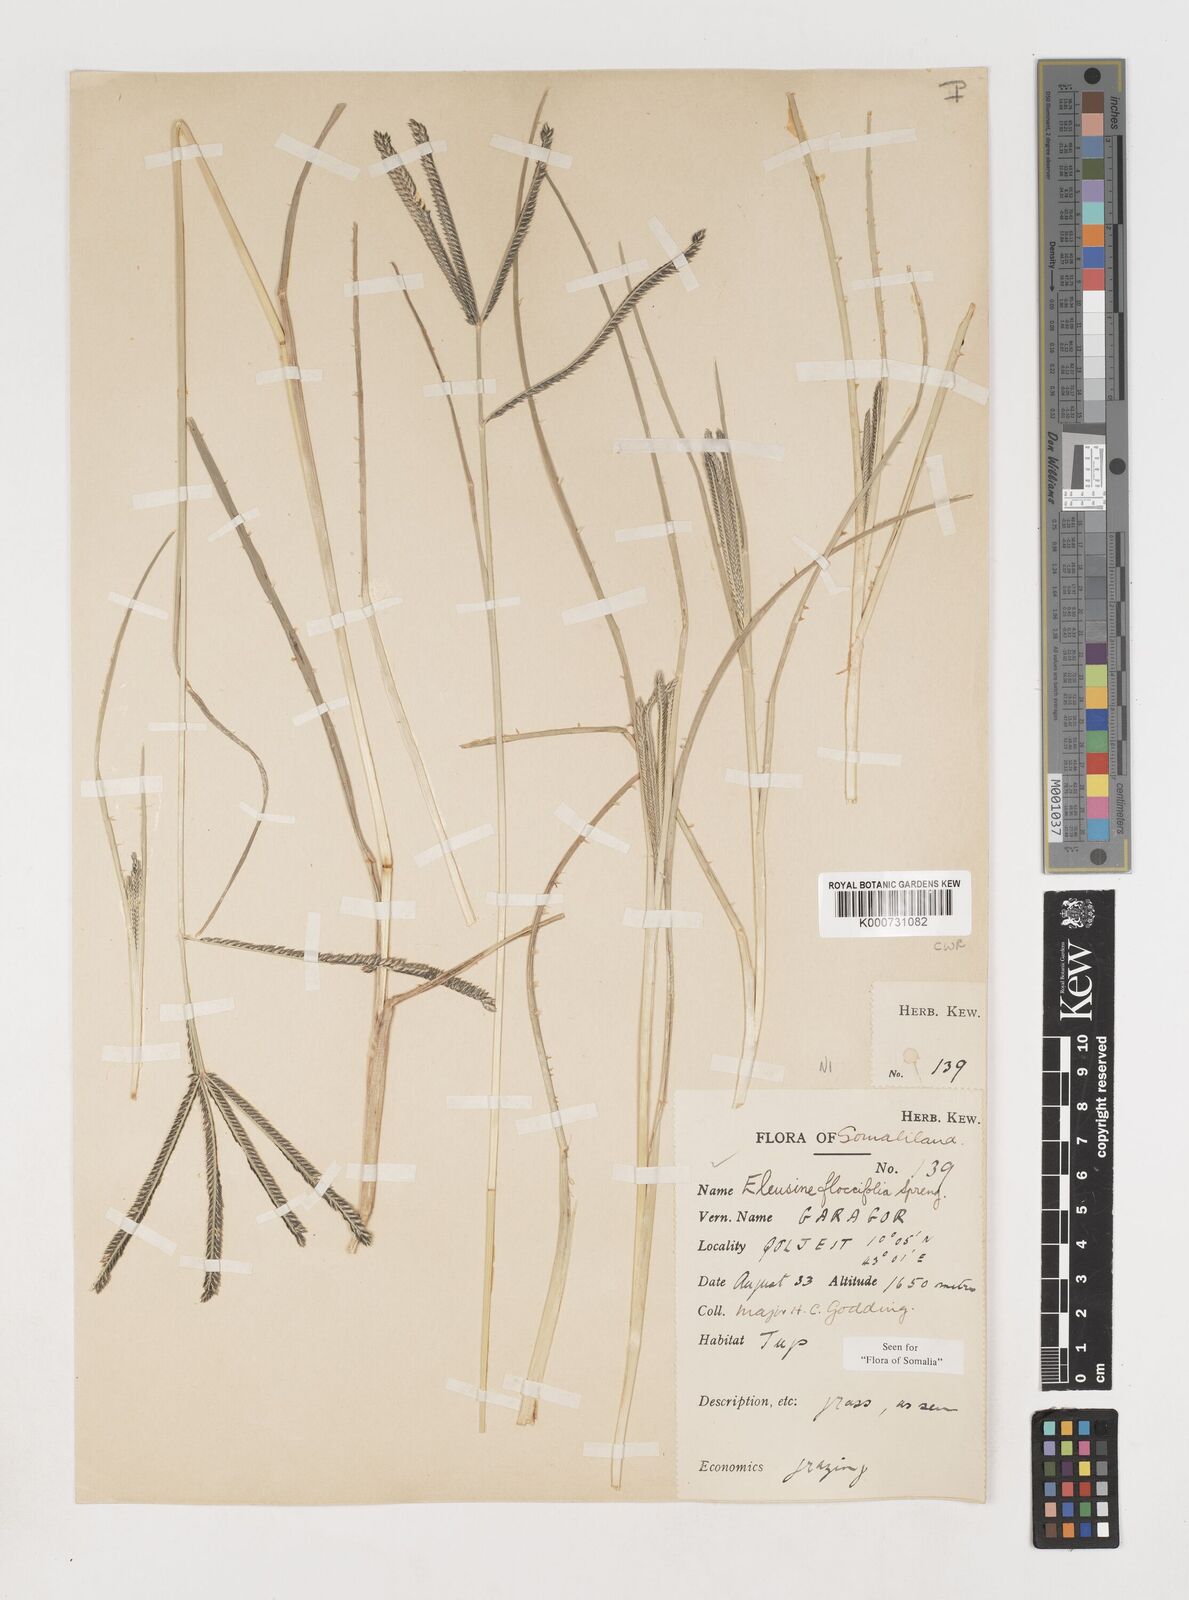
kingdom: Plantae
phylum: Tracheophyta
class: Liliopsida
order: Poales
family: Poaceae
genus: Eleusine
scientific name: Eleusine floccifolia
